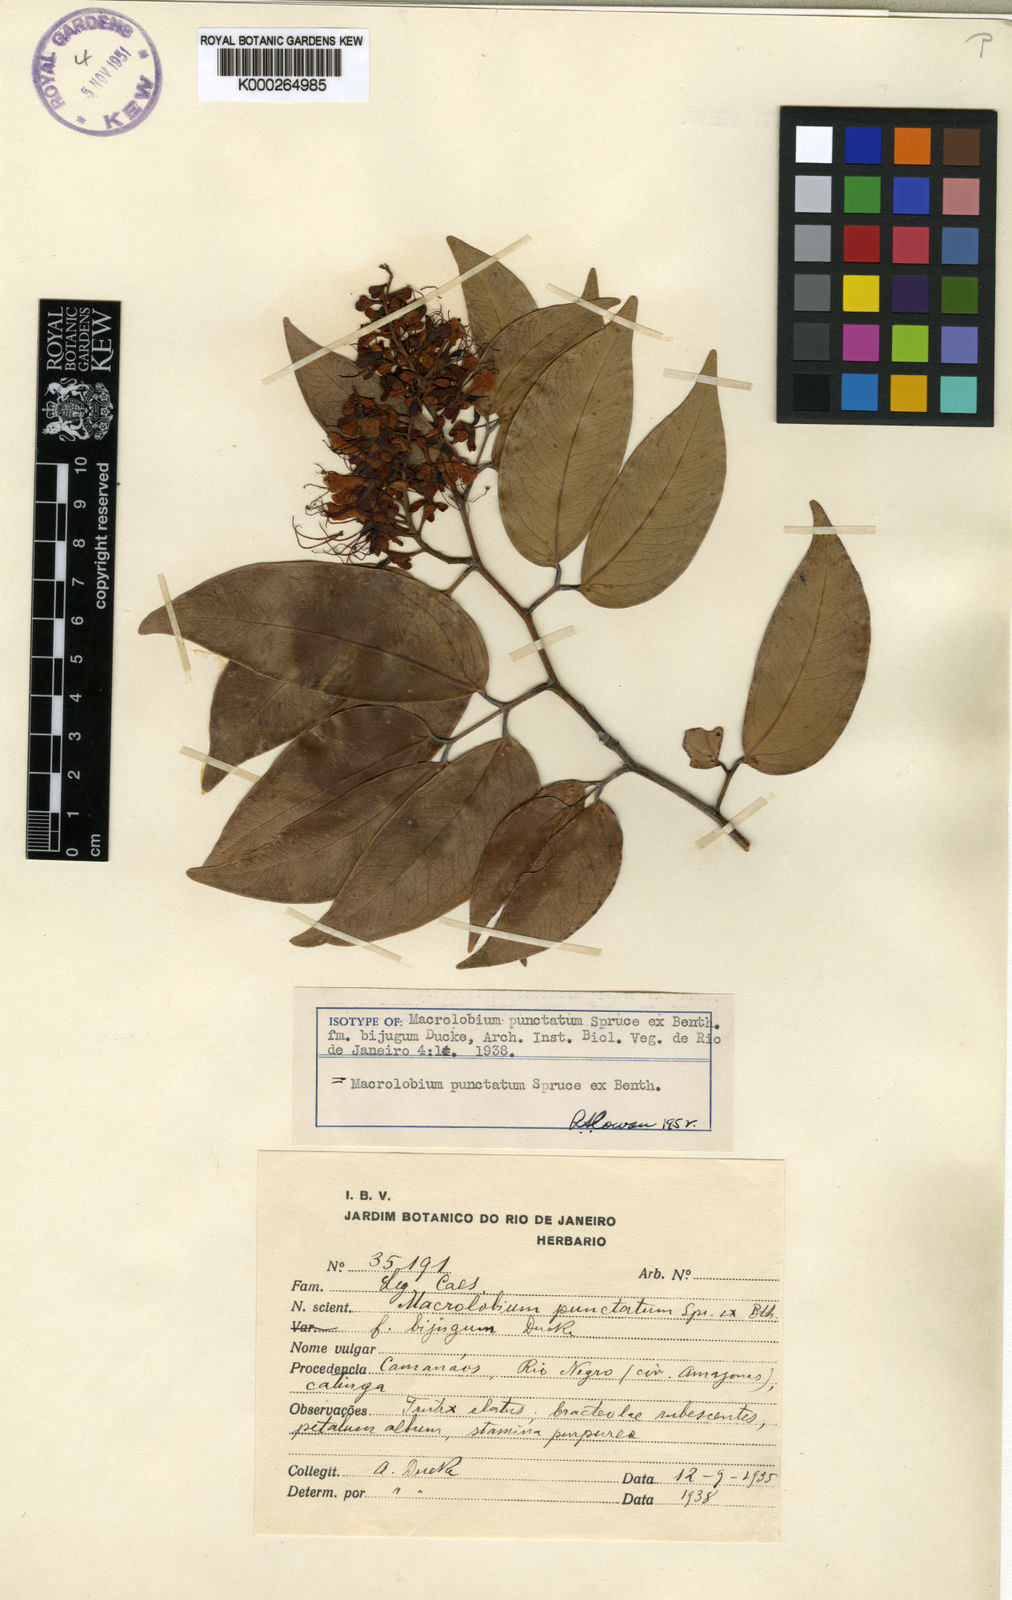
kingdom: Plantae
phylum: Tracheophyta
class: Magnoliopsida
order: Fabales
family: Fabaceae
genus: Macrolobium
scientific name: Macrolobium punctatum
